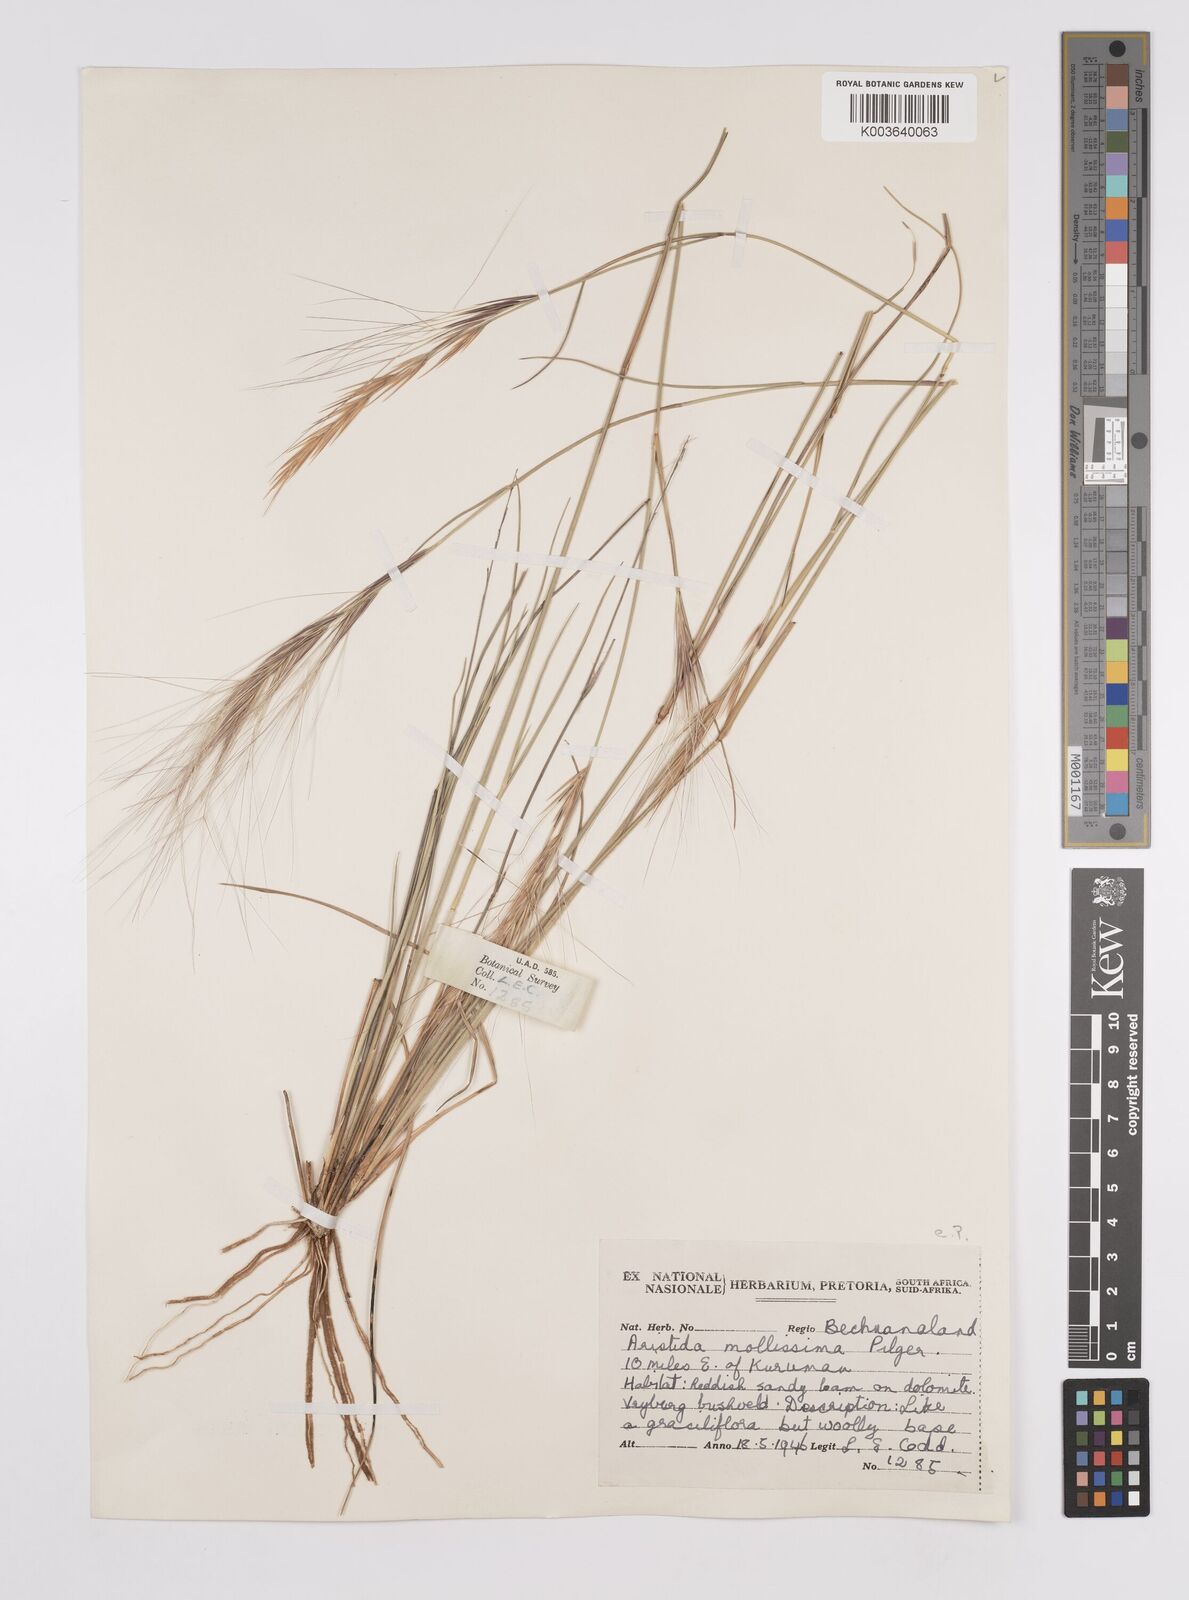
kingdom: Plantae
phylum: Tracheophyta
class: Liliopsida
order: Poales
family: Poaceae
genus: Aristida
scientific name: Aristida mollissima
